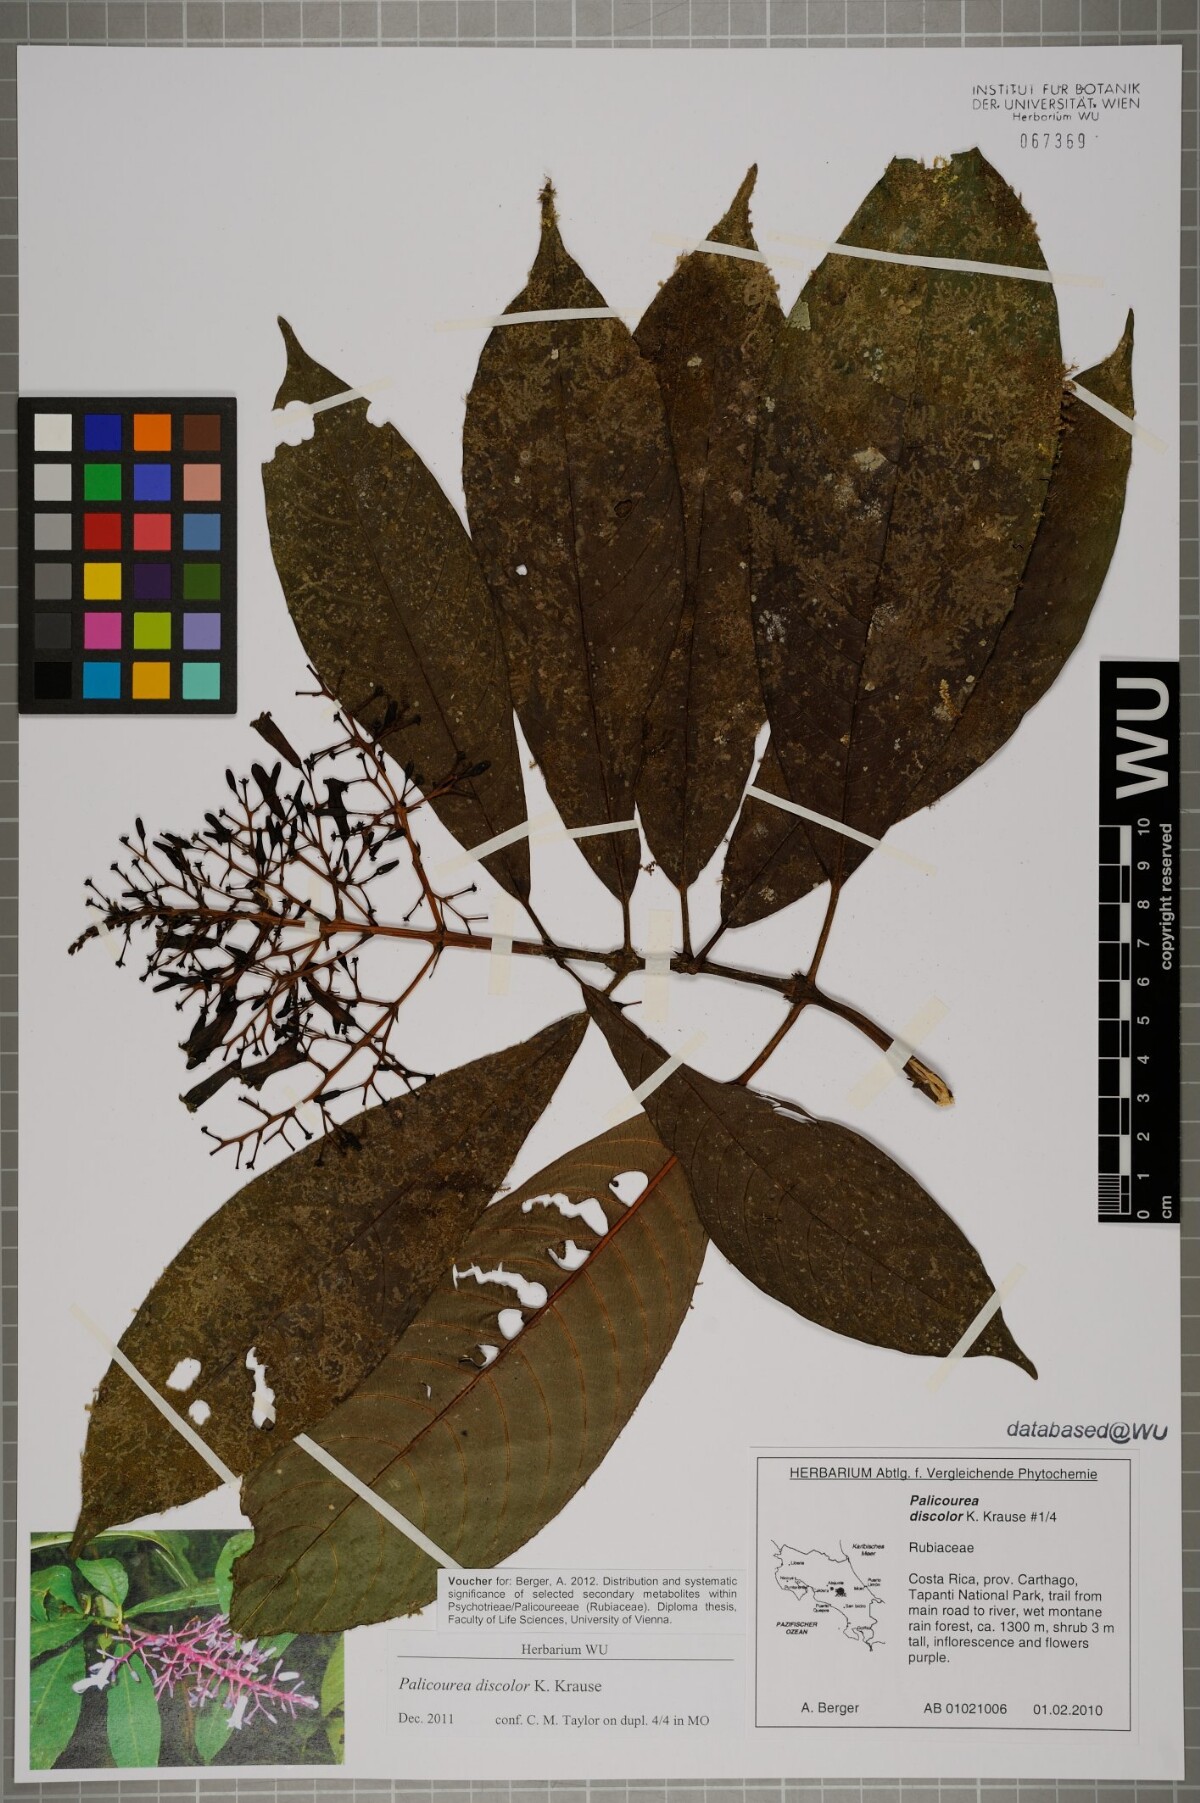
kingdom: Plantae
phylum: Tracheophyta
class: Magnoliopsida
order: Gentianales
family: Rubiaceae
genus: Palicourea
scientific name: Palicourea macrosepala
